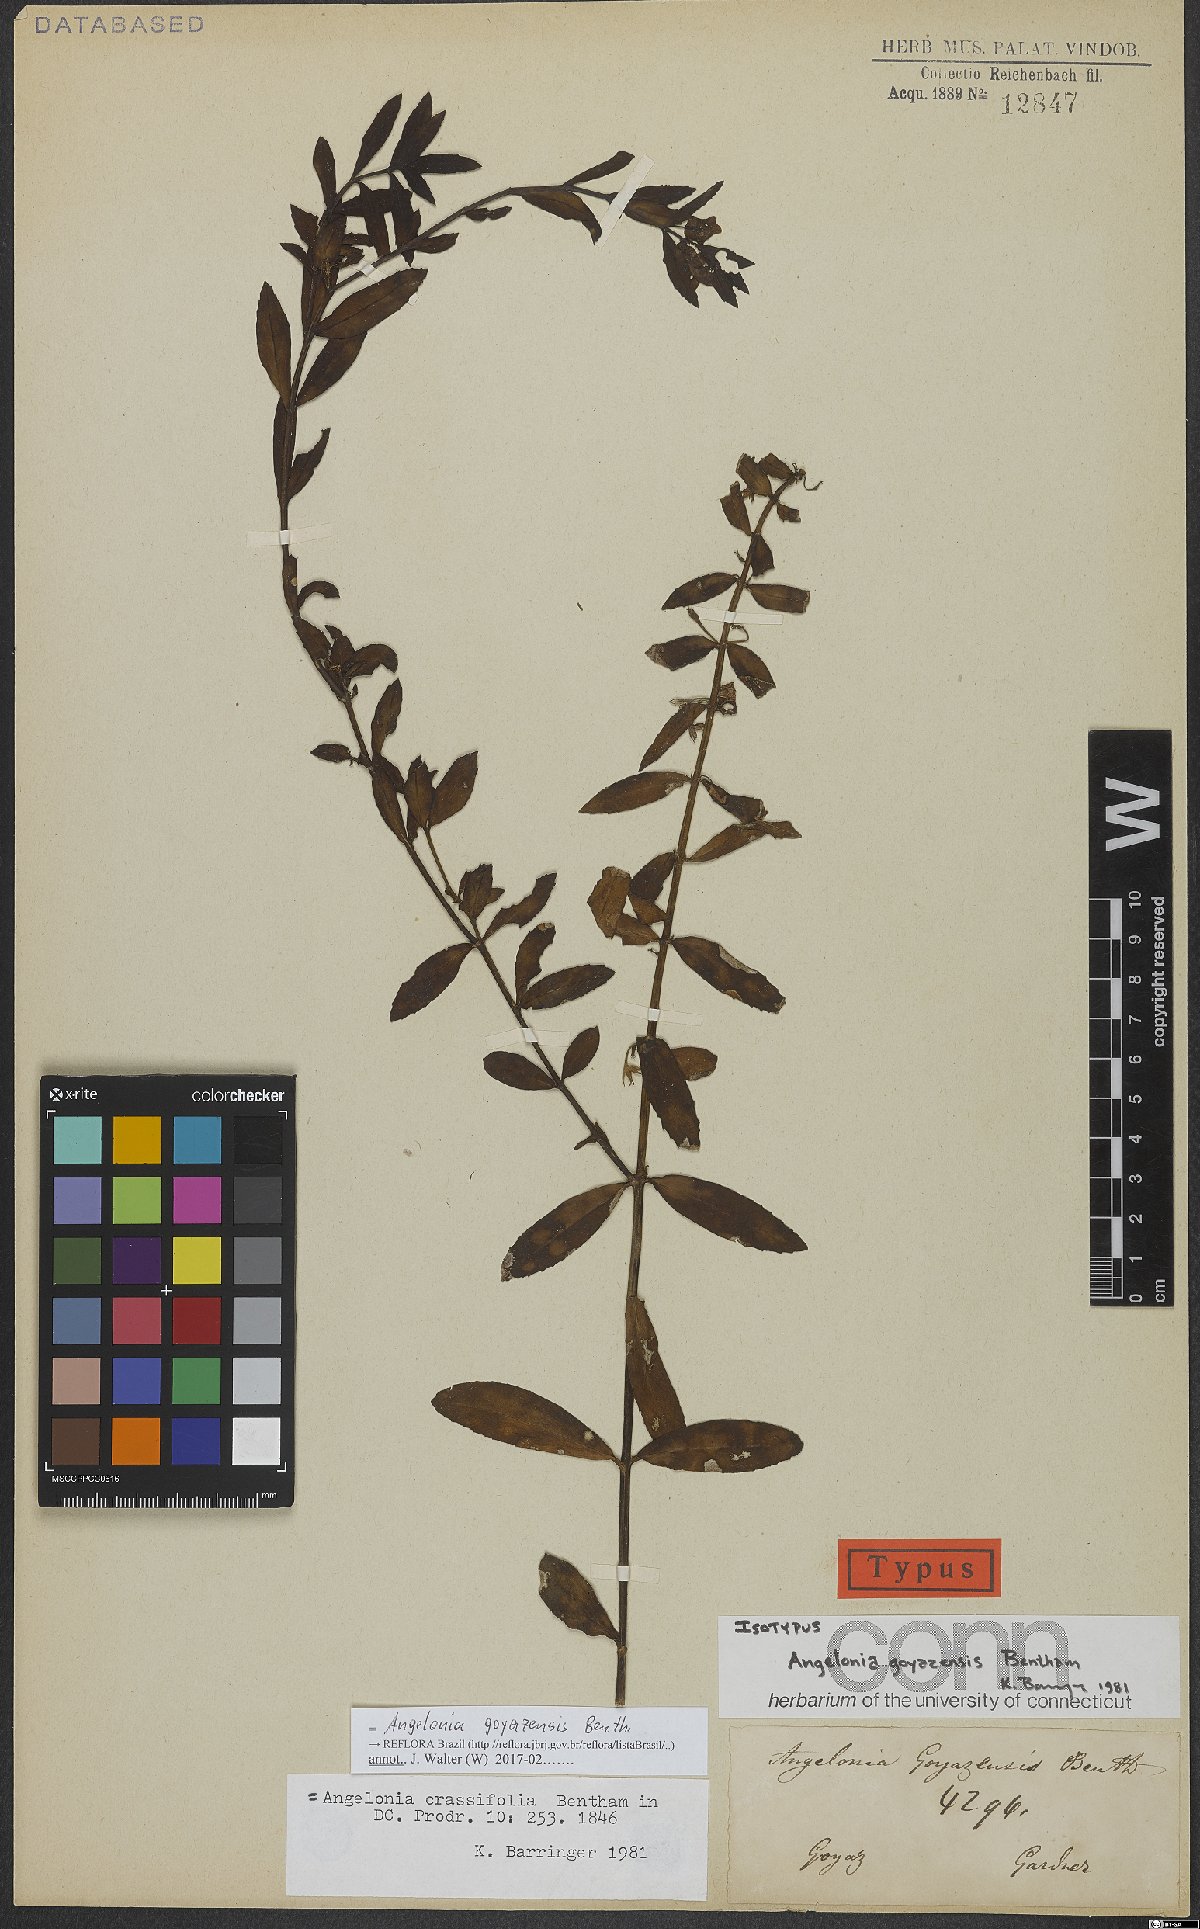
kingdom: Plantae
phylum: Tracheophyta
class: Magnoliopsida
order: Lamiales
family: Plantaginaceae
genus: Angelonia
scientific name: Angelonia goyazensis
